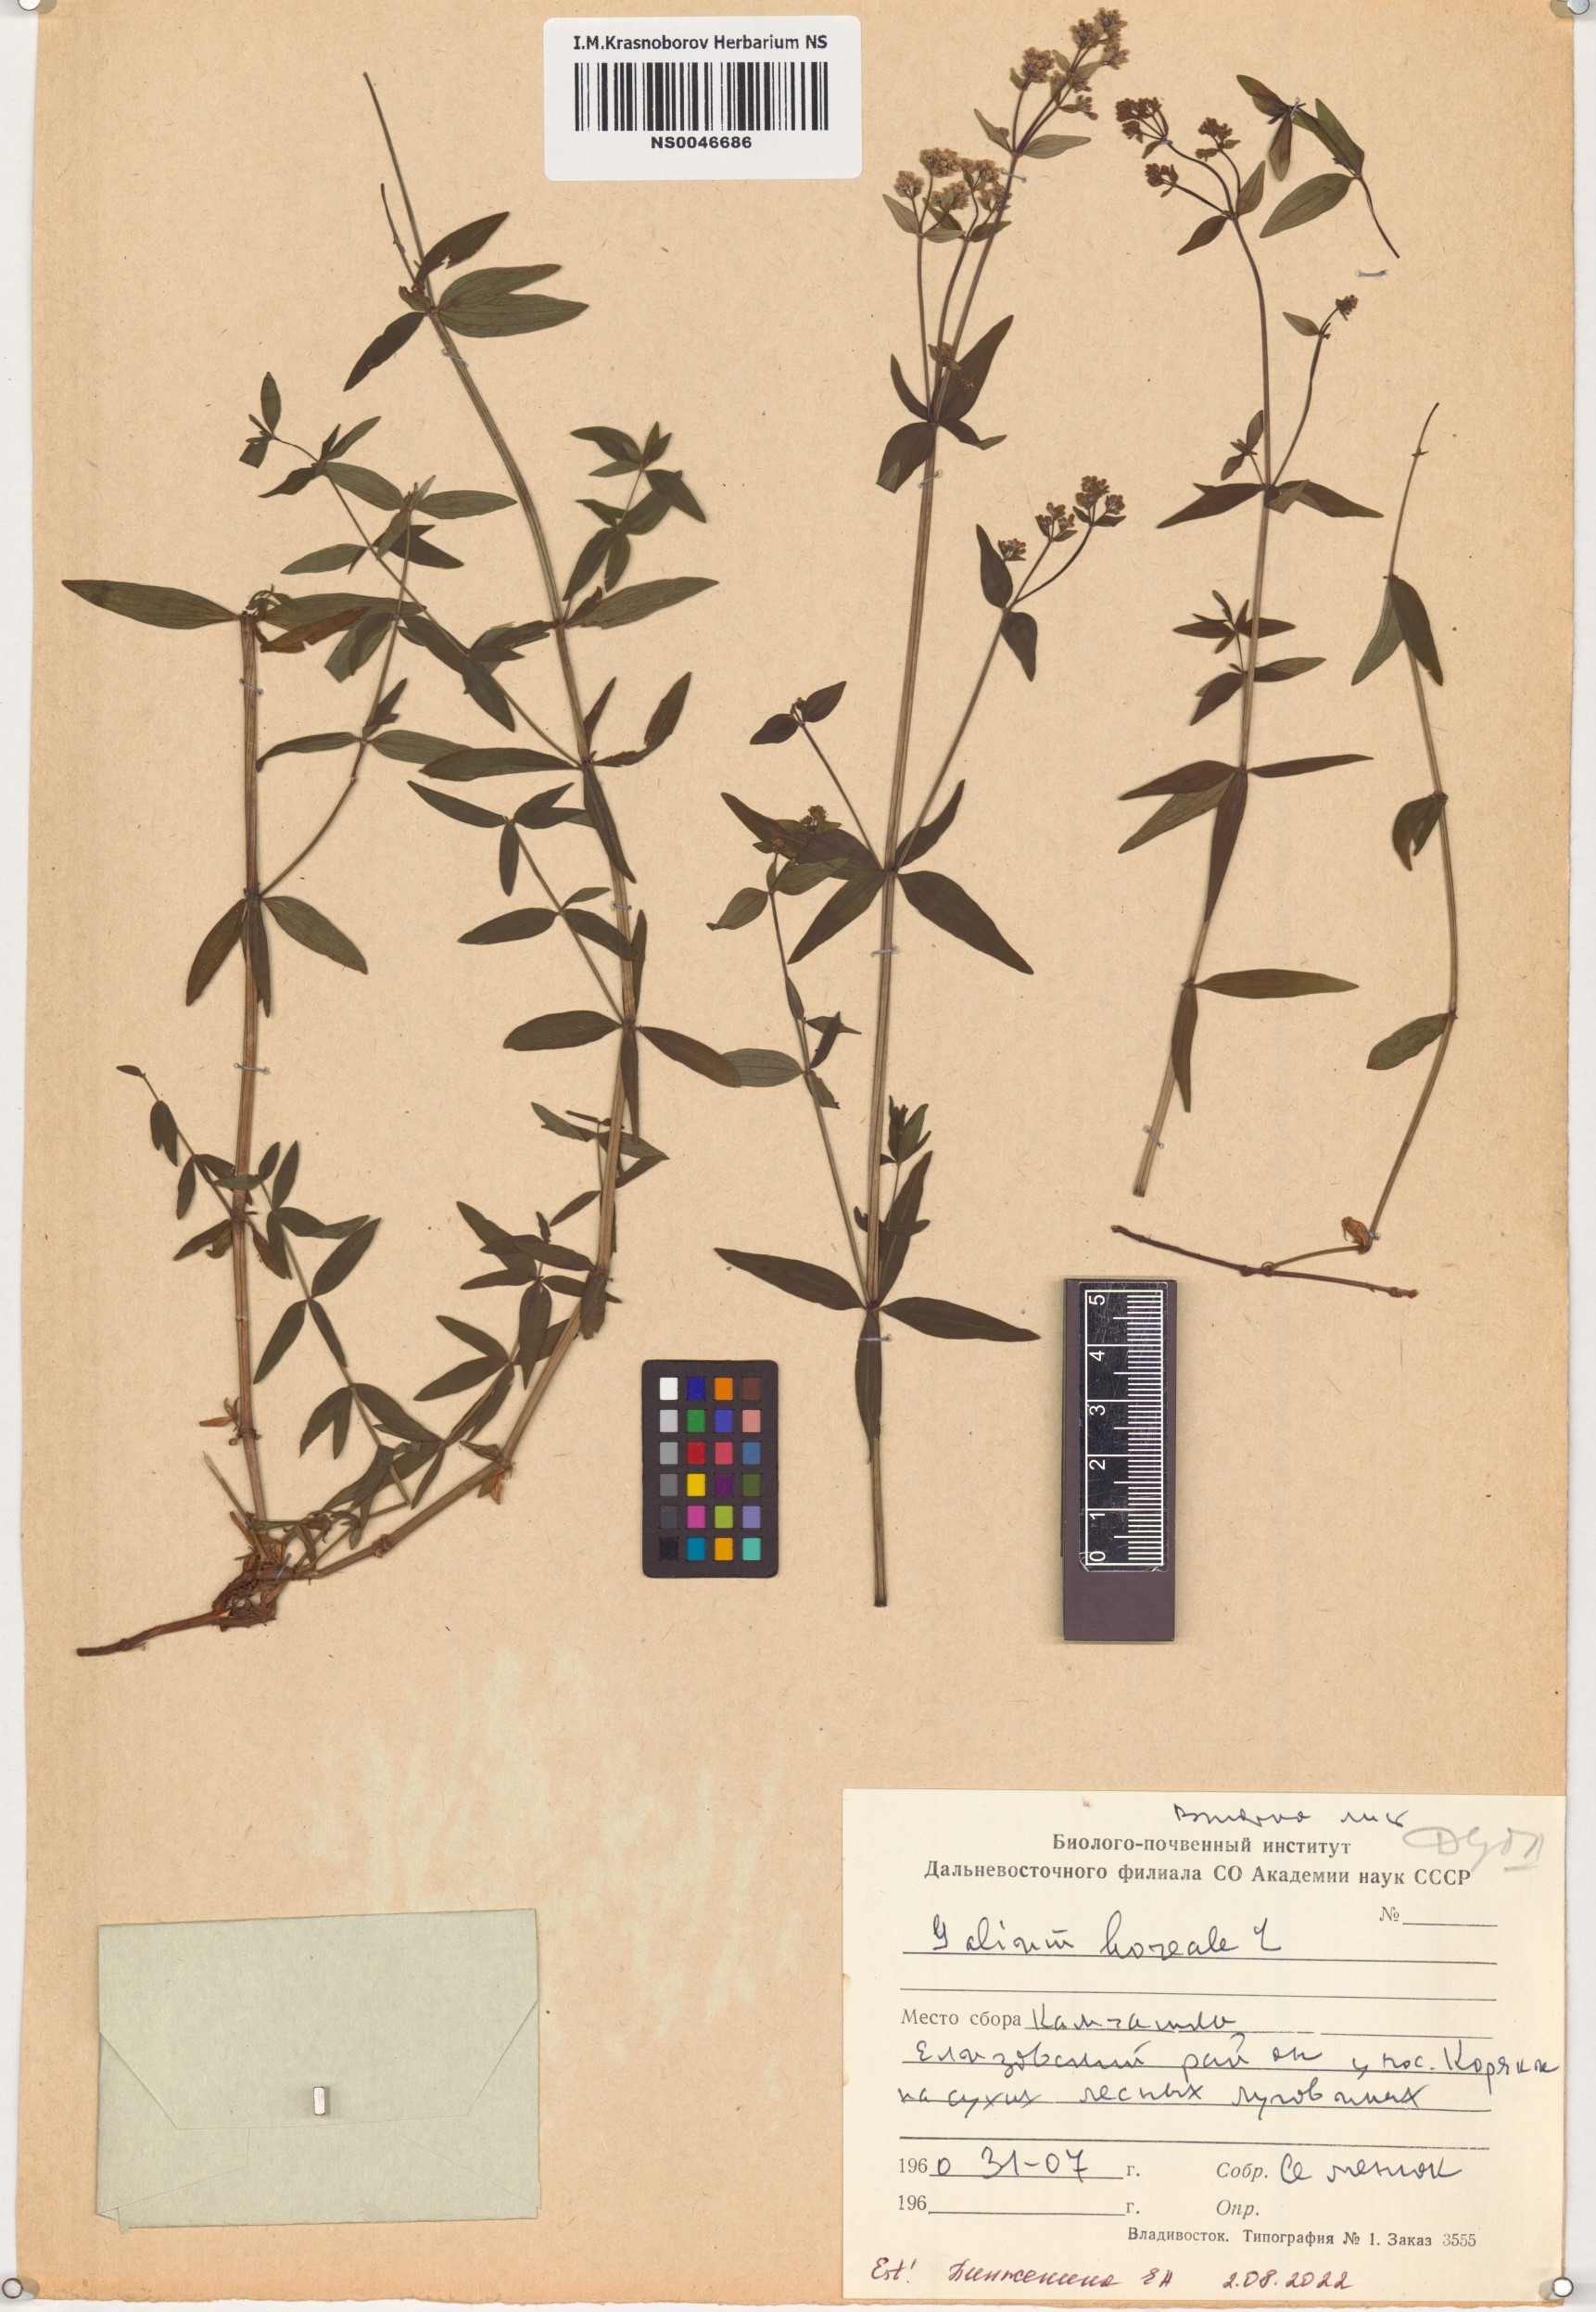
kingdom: Plantae
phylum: Tracheophyta
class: Magnoliopsida
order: Gentianales
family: Rubiaceae
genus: Galium
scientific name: Galium boreale
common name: Northern bedstraw
